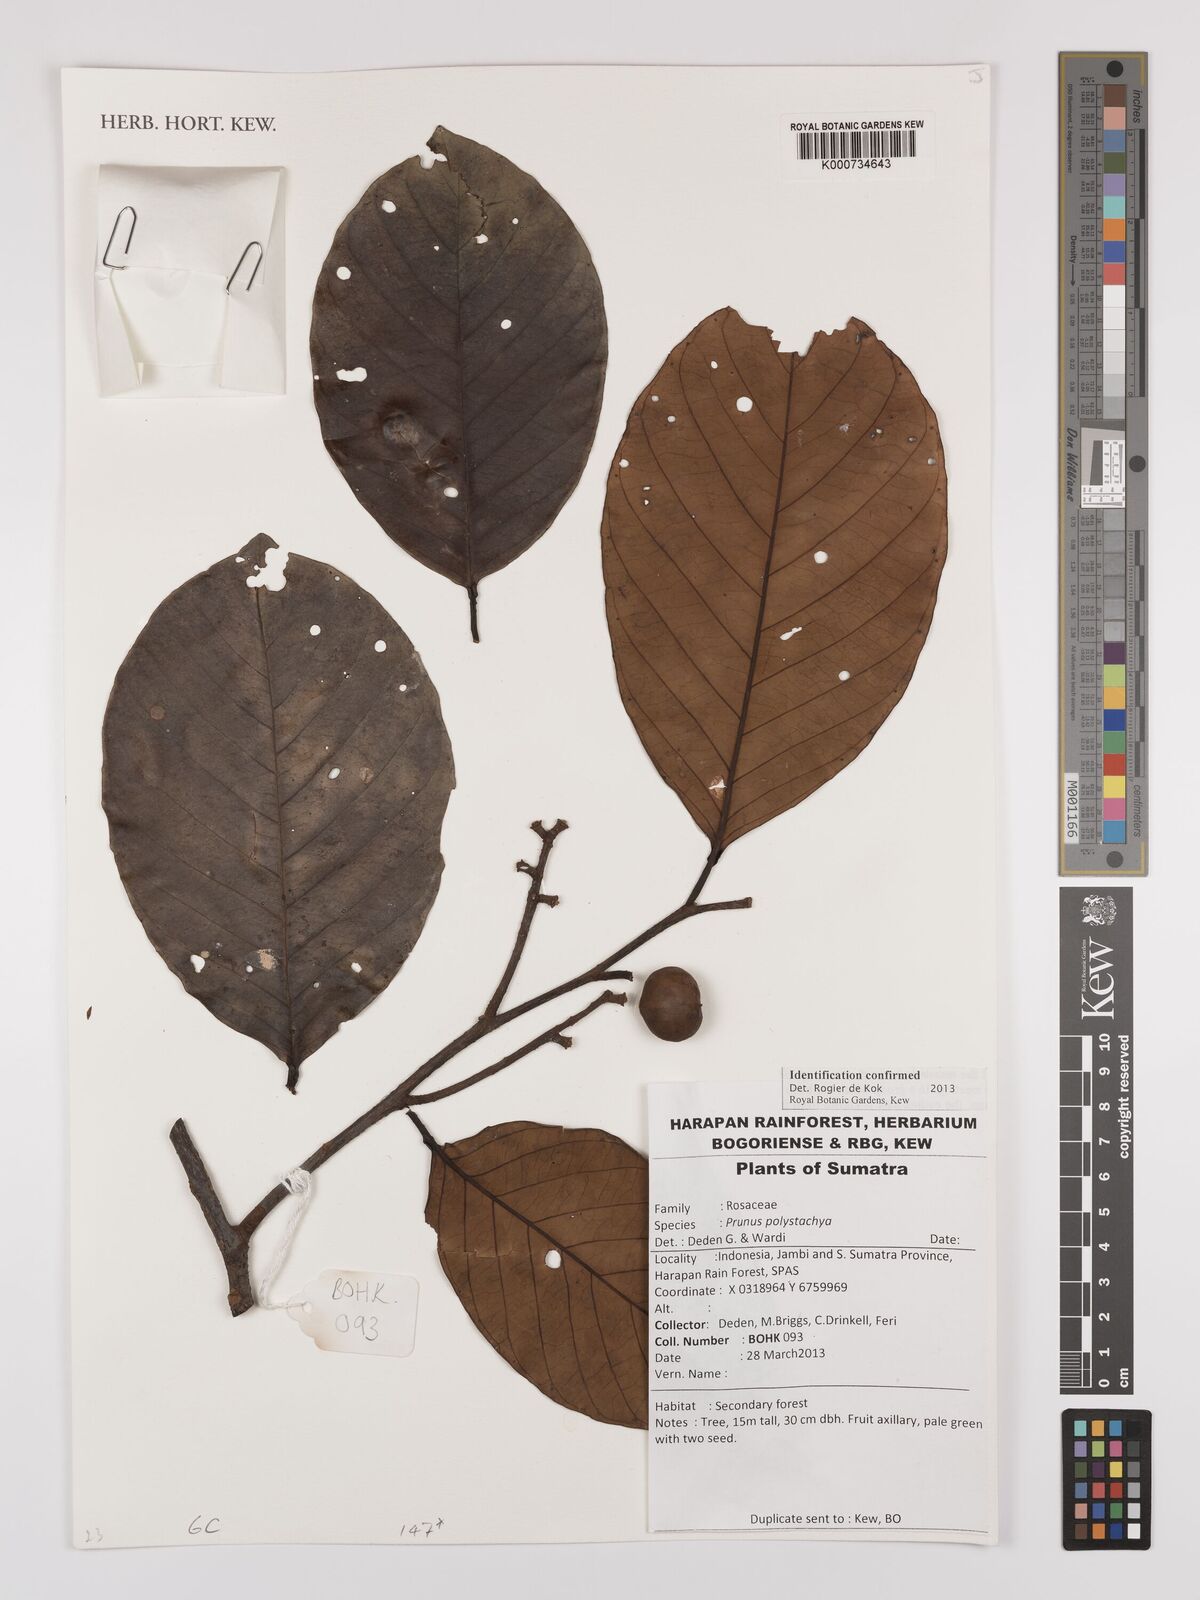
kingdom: Plantae
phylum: Tracheophyta
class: Magnoliopsida
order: Rosales
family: Rosaceae
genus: Prunus
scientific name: Prunus polystachya
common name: Bat laurel
